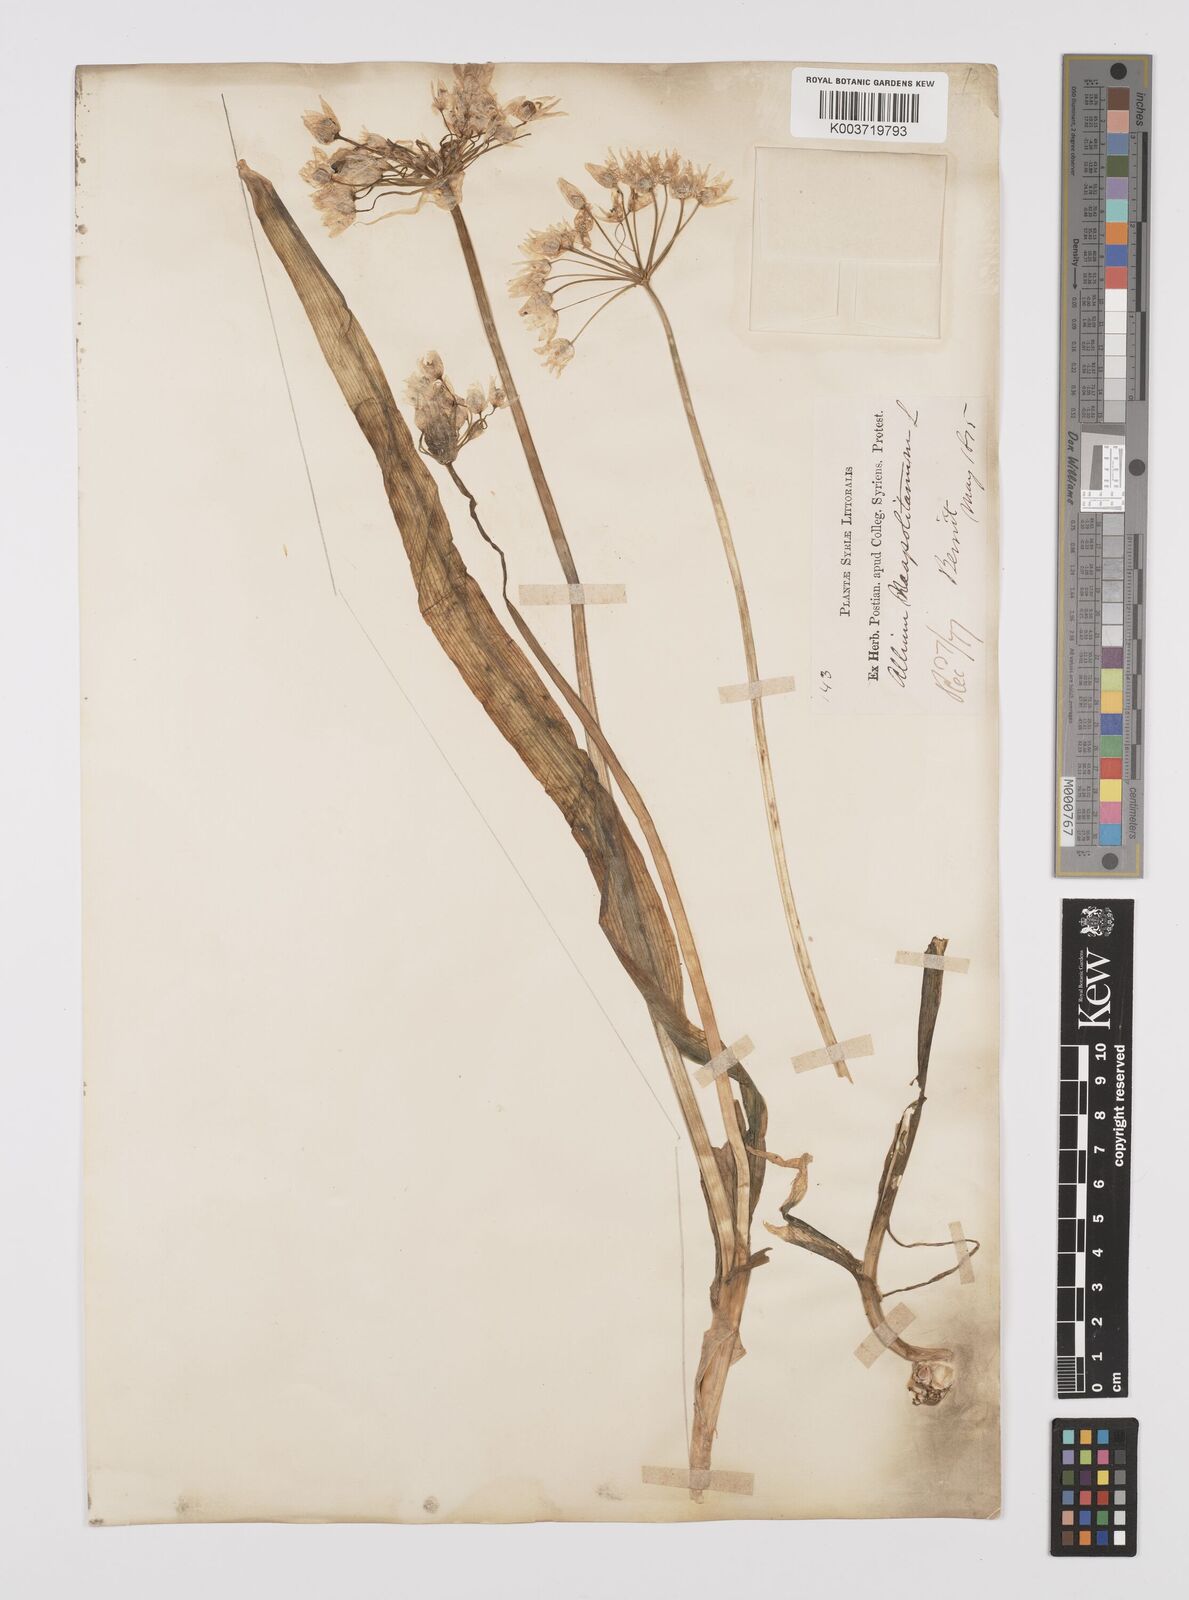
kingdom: Plantae
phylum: Tracheophyta
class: Liliopsida
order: Asparagales
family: Amaryllidaceae
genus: Allium
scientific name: Allium neapolitanum
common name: Neapolitan garlic
